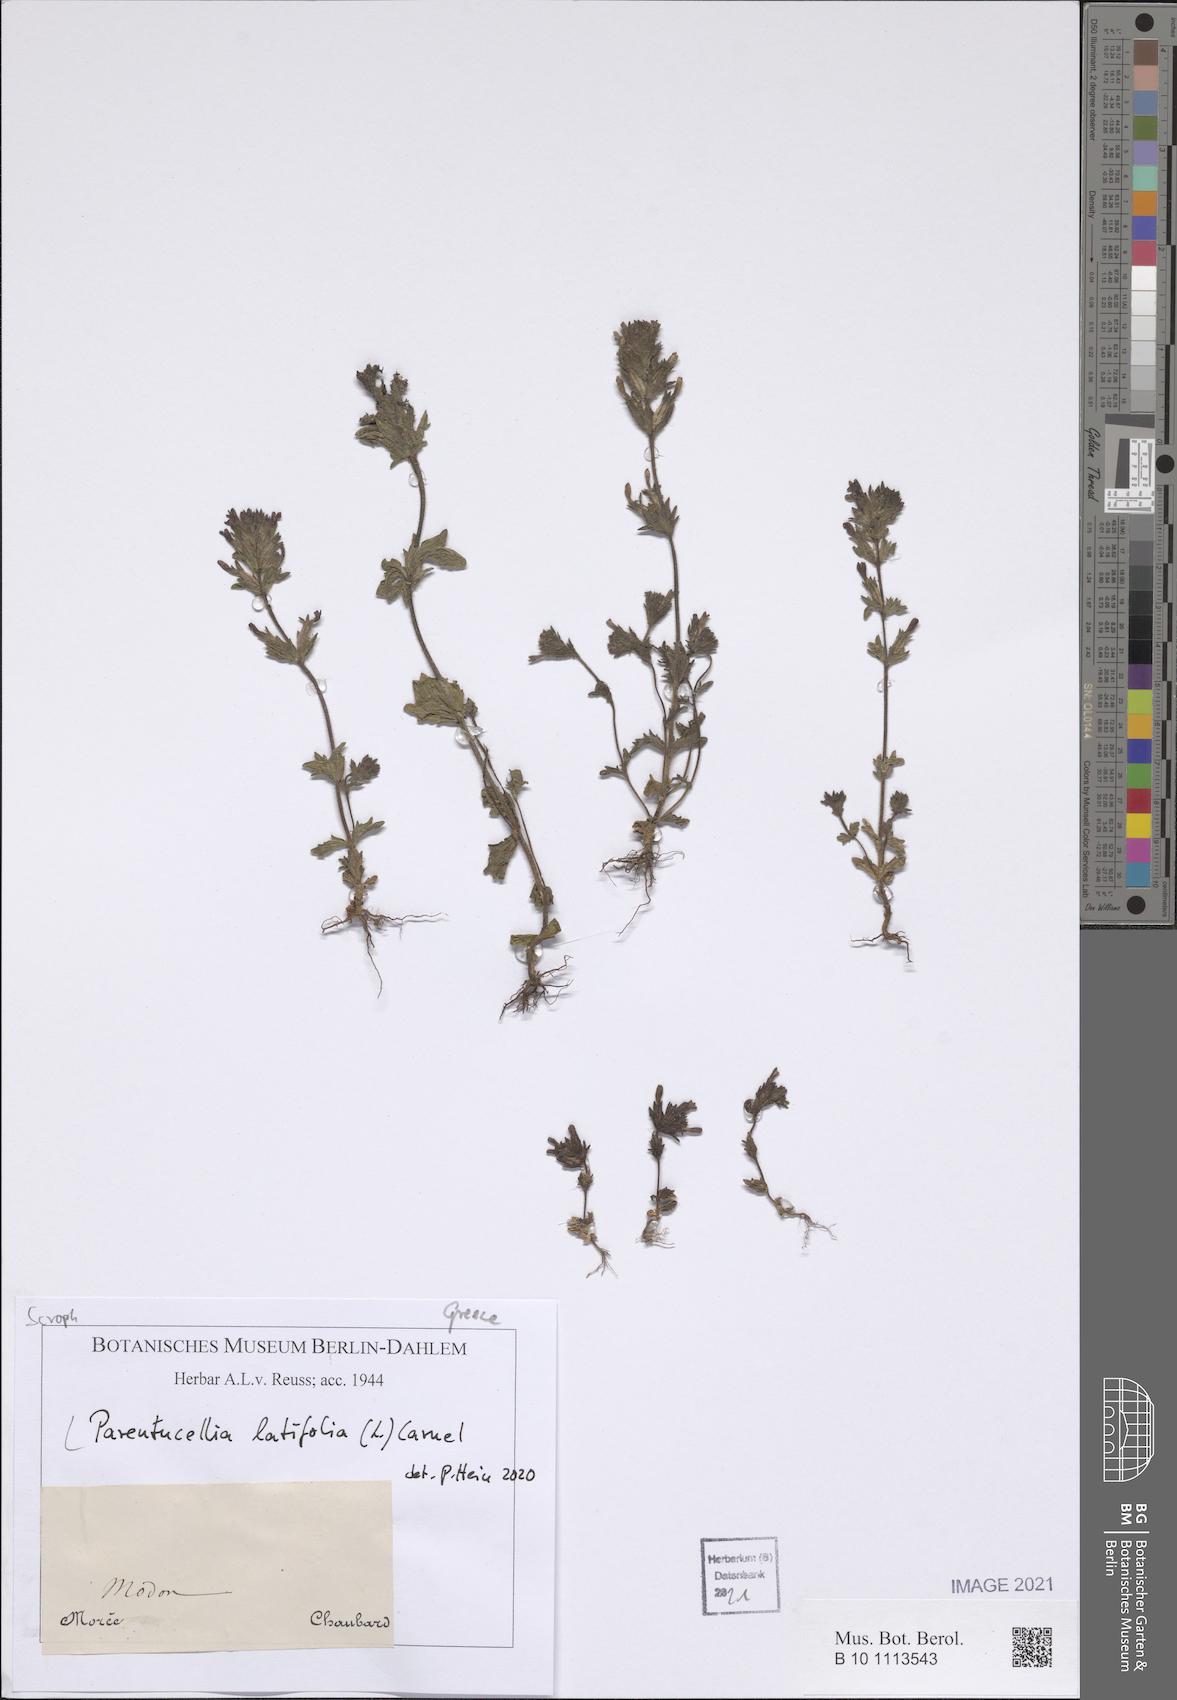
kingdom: Plantae
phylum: Tracheophyta
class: Magnoliopsida
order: Lamiales
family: Orobanchaceae
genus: Parentucellia
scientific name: Parentucellia latifolia
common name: Broadleaf glandweed
